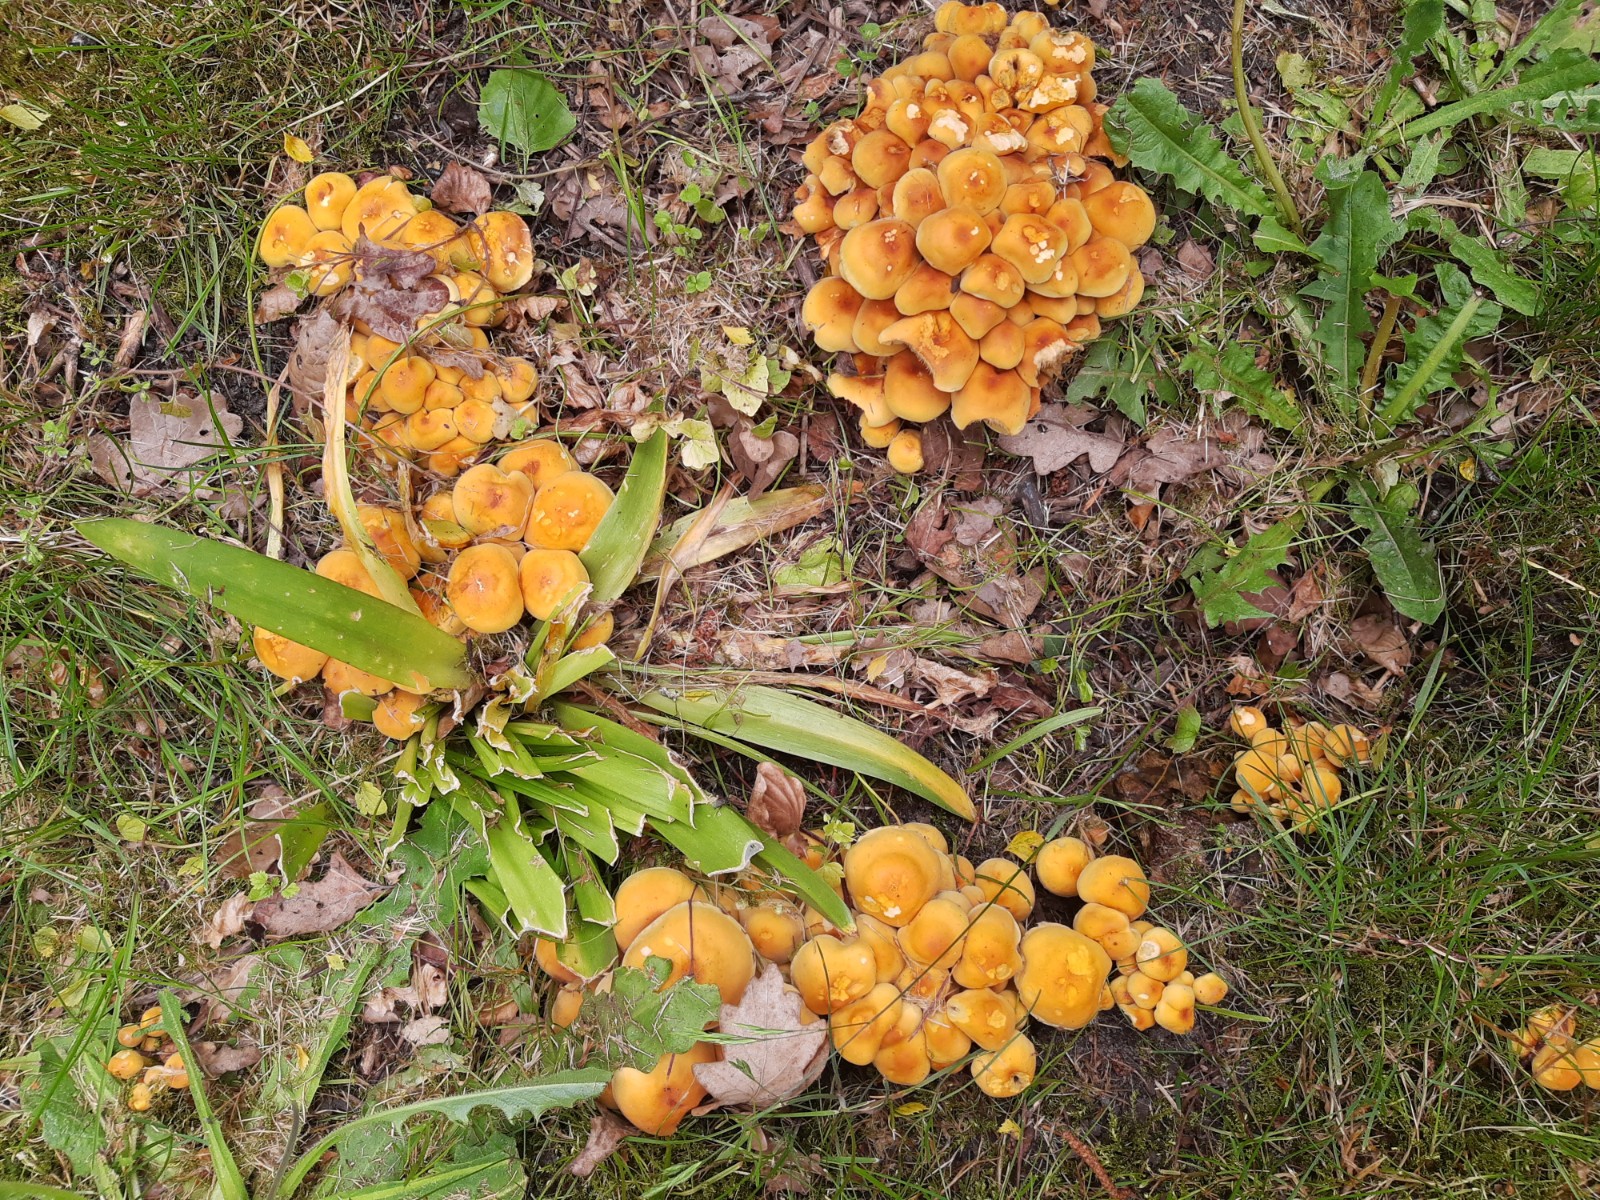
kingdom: Fungi
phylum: Basidiomycota
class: Agaricomycetes
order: Agaricales
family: Strophariaceae
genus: Hypholoma
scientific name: Hypholoma fasciculare
